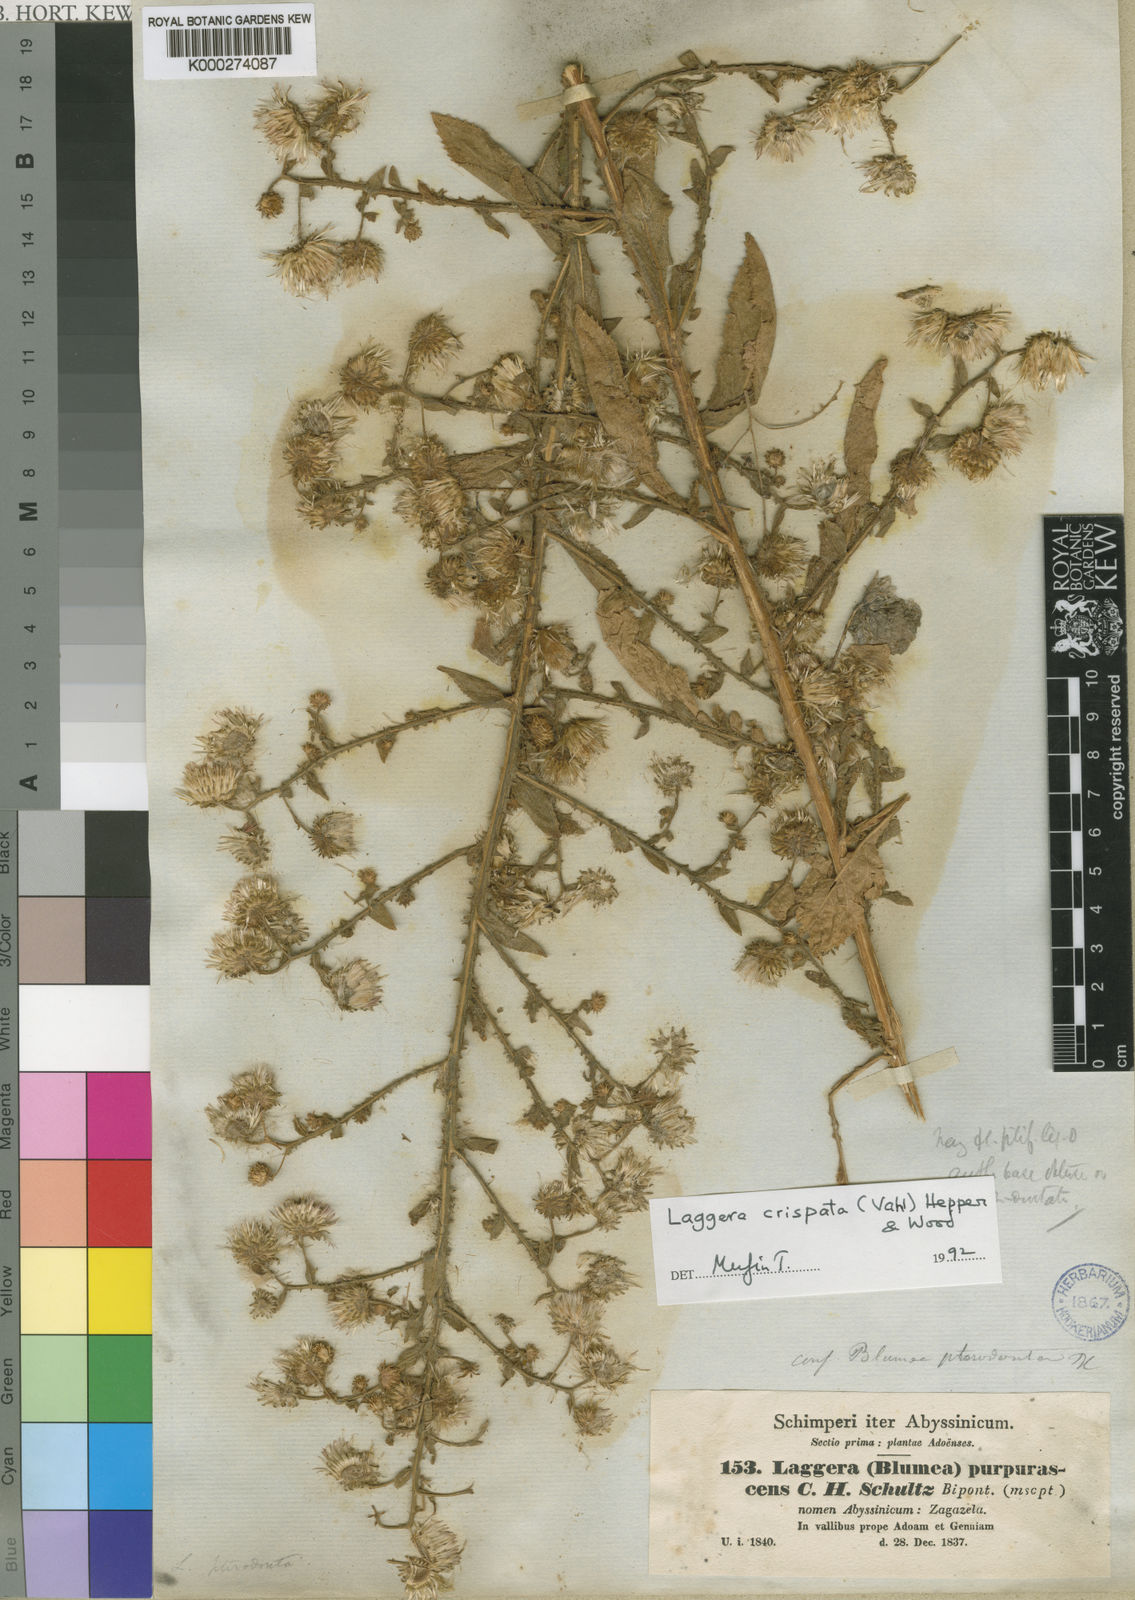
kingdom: Plantae
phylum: Tracheophyta
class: Magnoliopsida
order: Asterales
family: Asteraceae
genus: Laggera
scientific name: Laggera crispata
